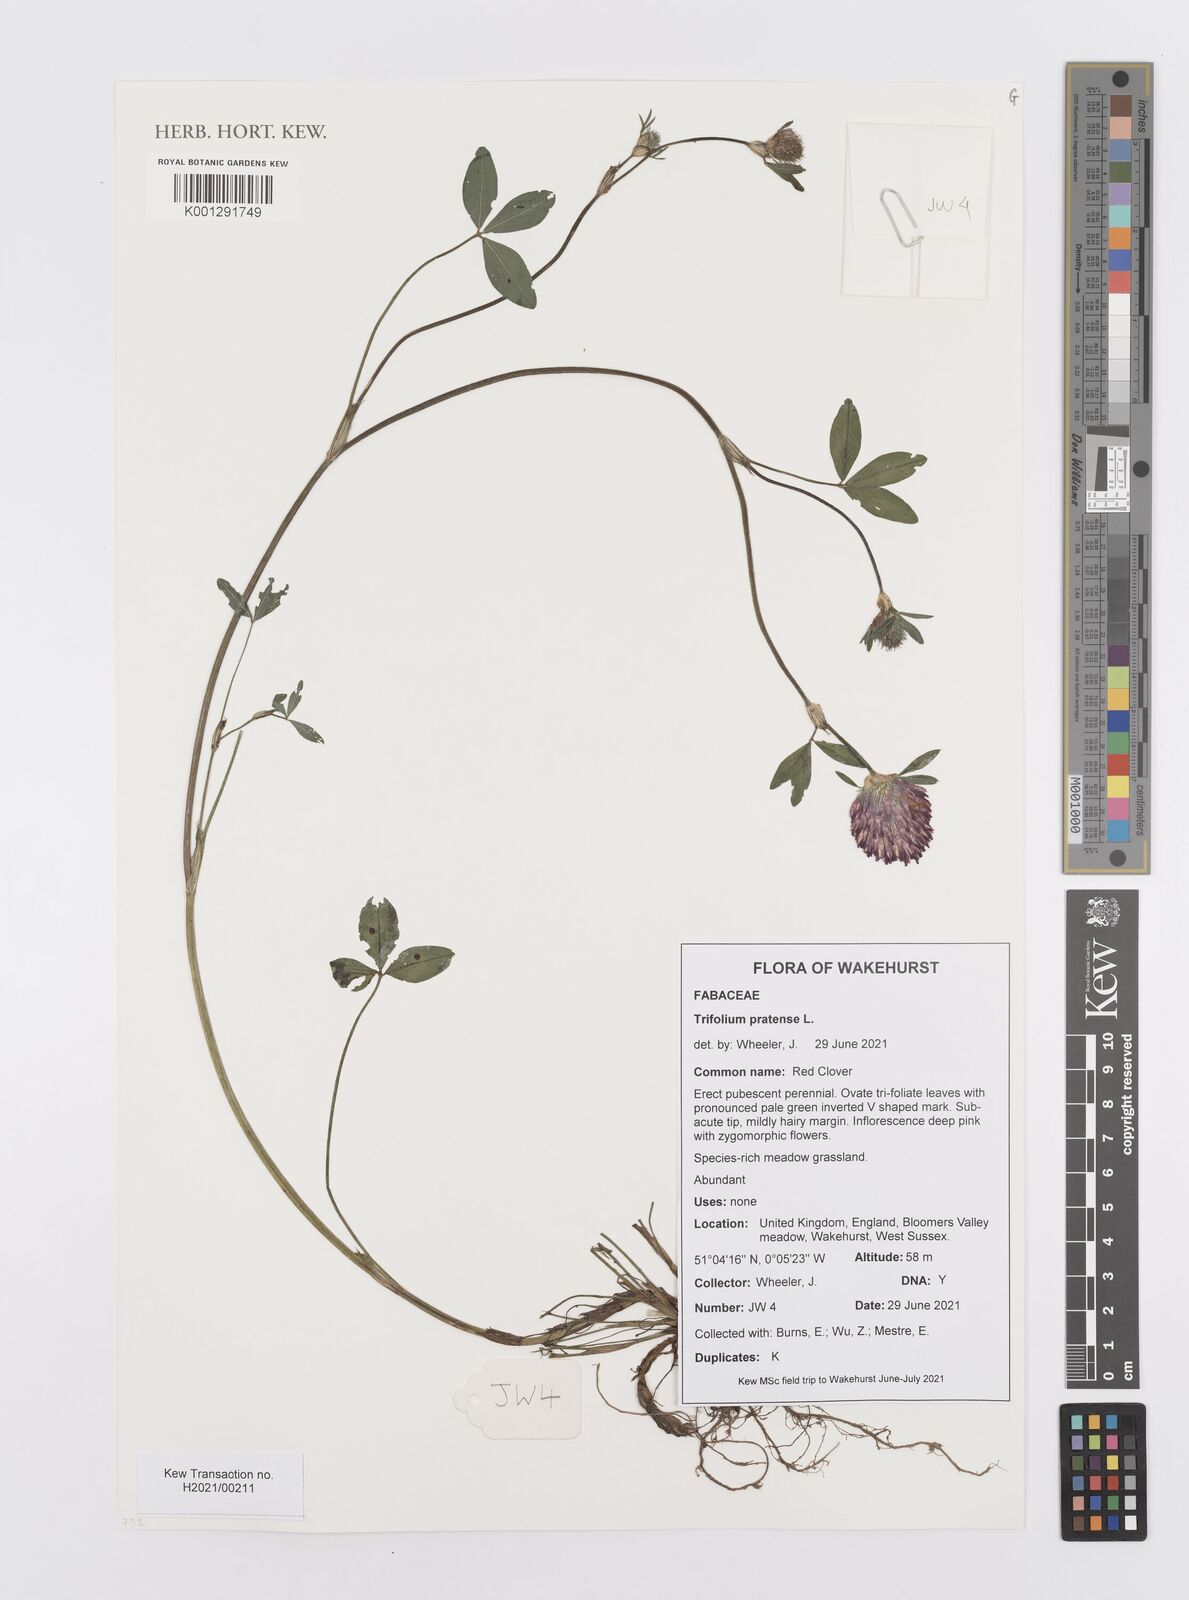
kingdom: Plantae
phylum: Tracheophyta
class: Magnoliopsida
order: Fabales
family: Fabaceae
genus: Trifolium
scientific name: Trifolium pratense
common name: Red clover
